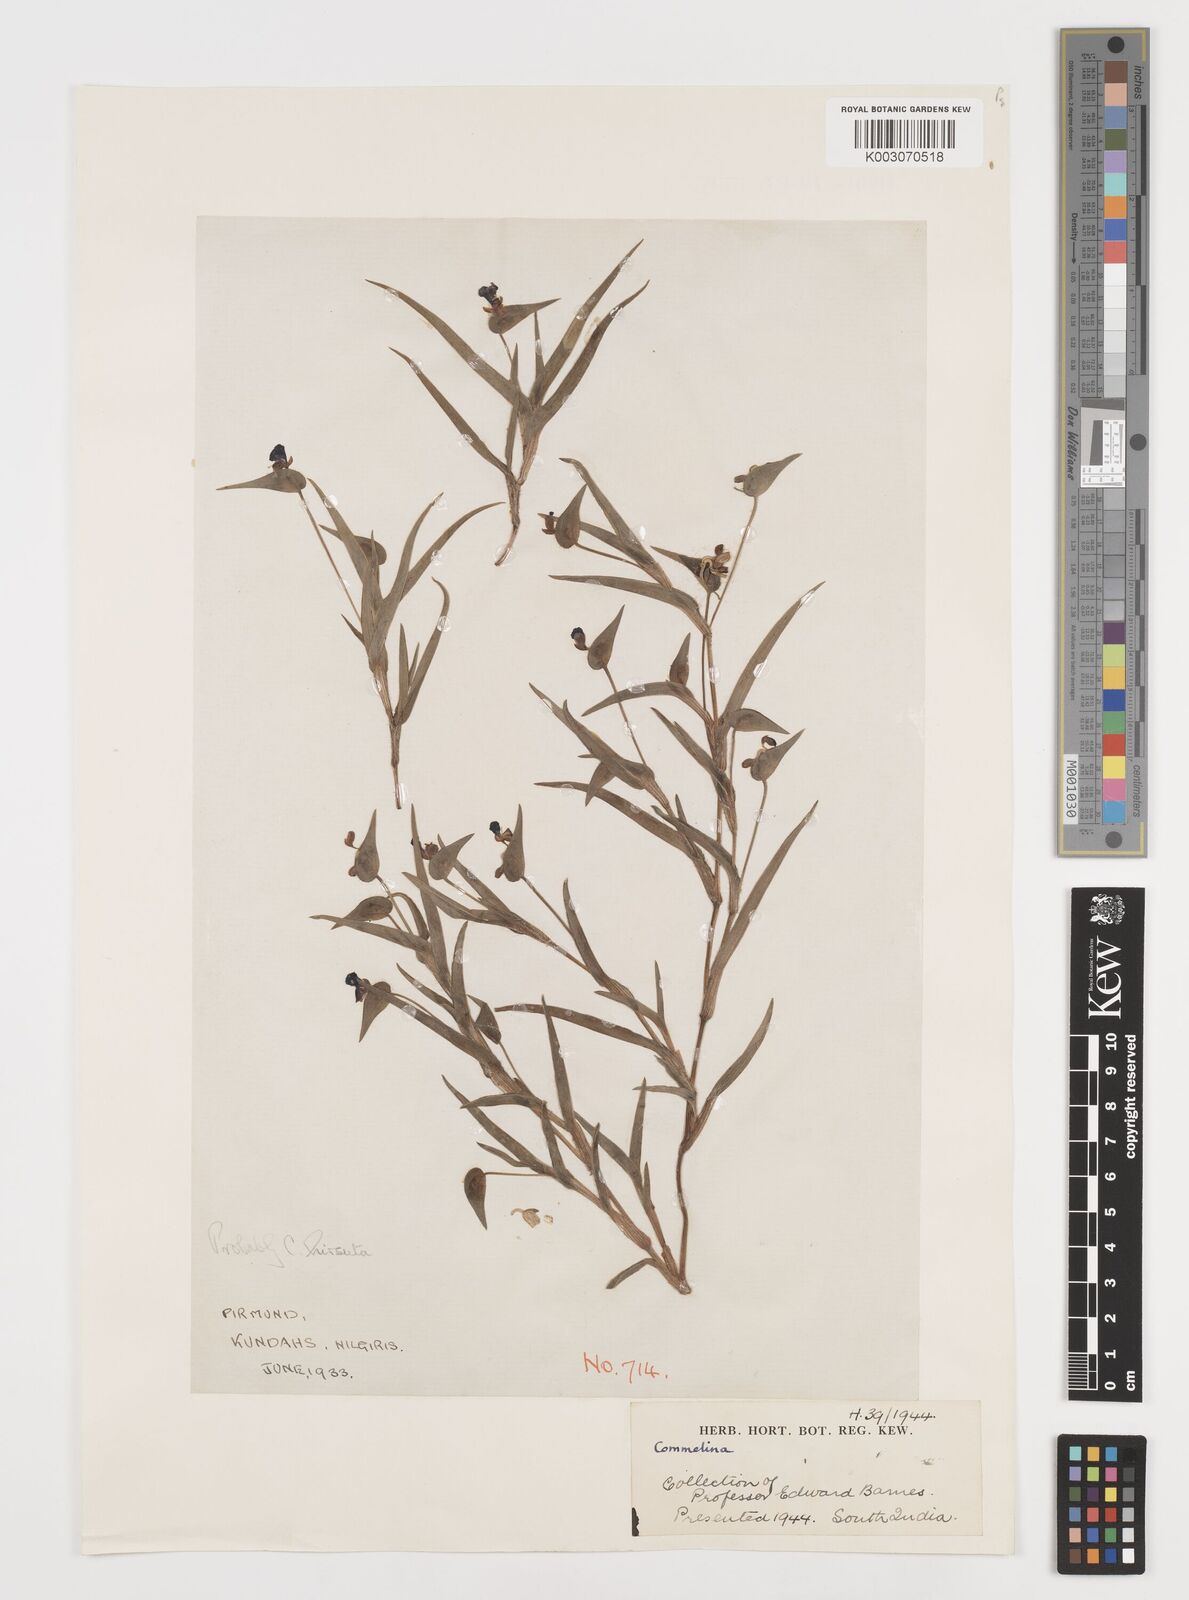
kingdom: Plantae
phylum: Tracheophyta
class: Liliopsida
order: Commelinales
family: Commelinaceae
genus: Commelina
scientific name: Commelina
